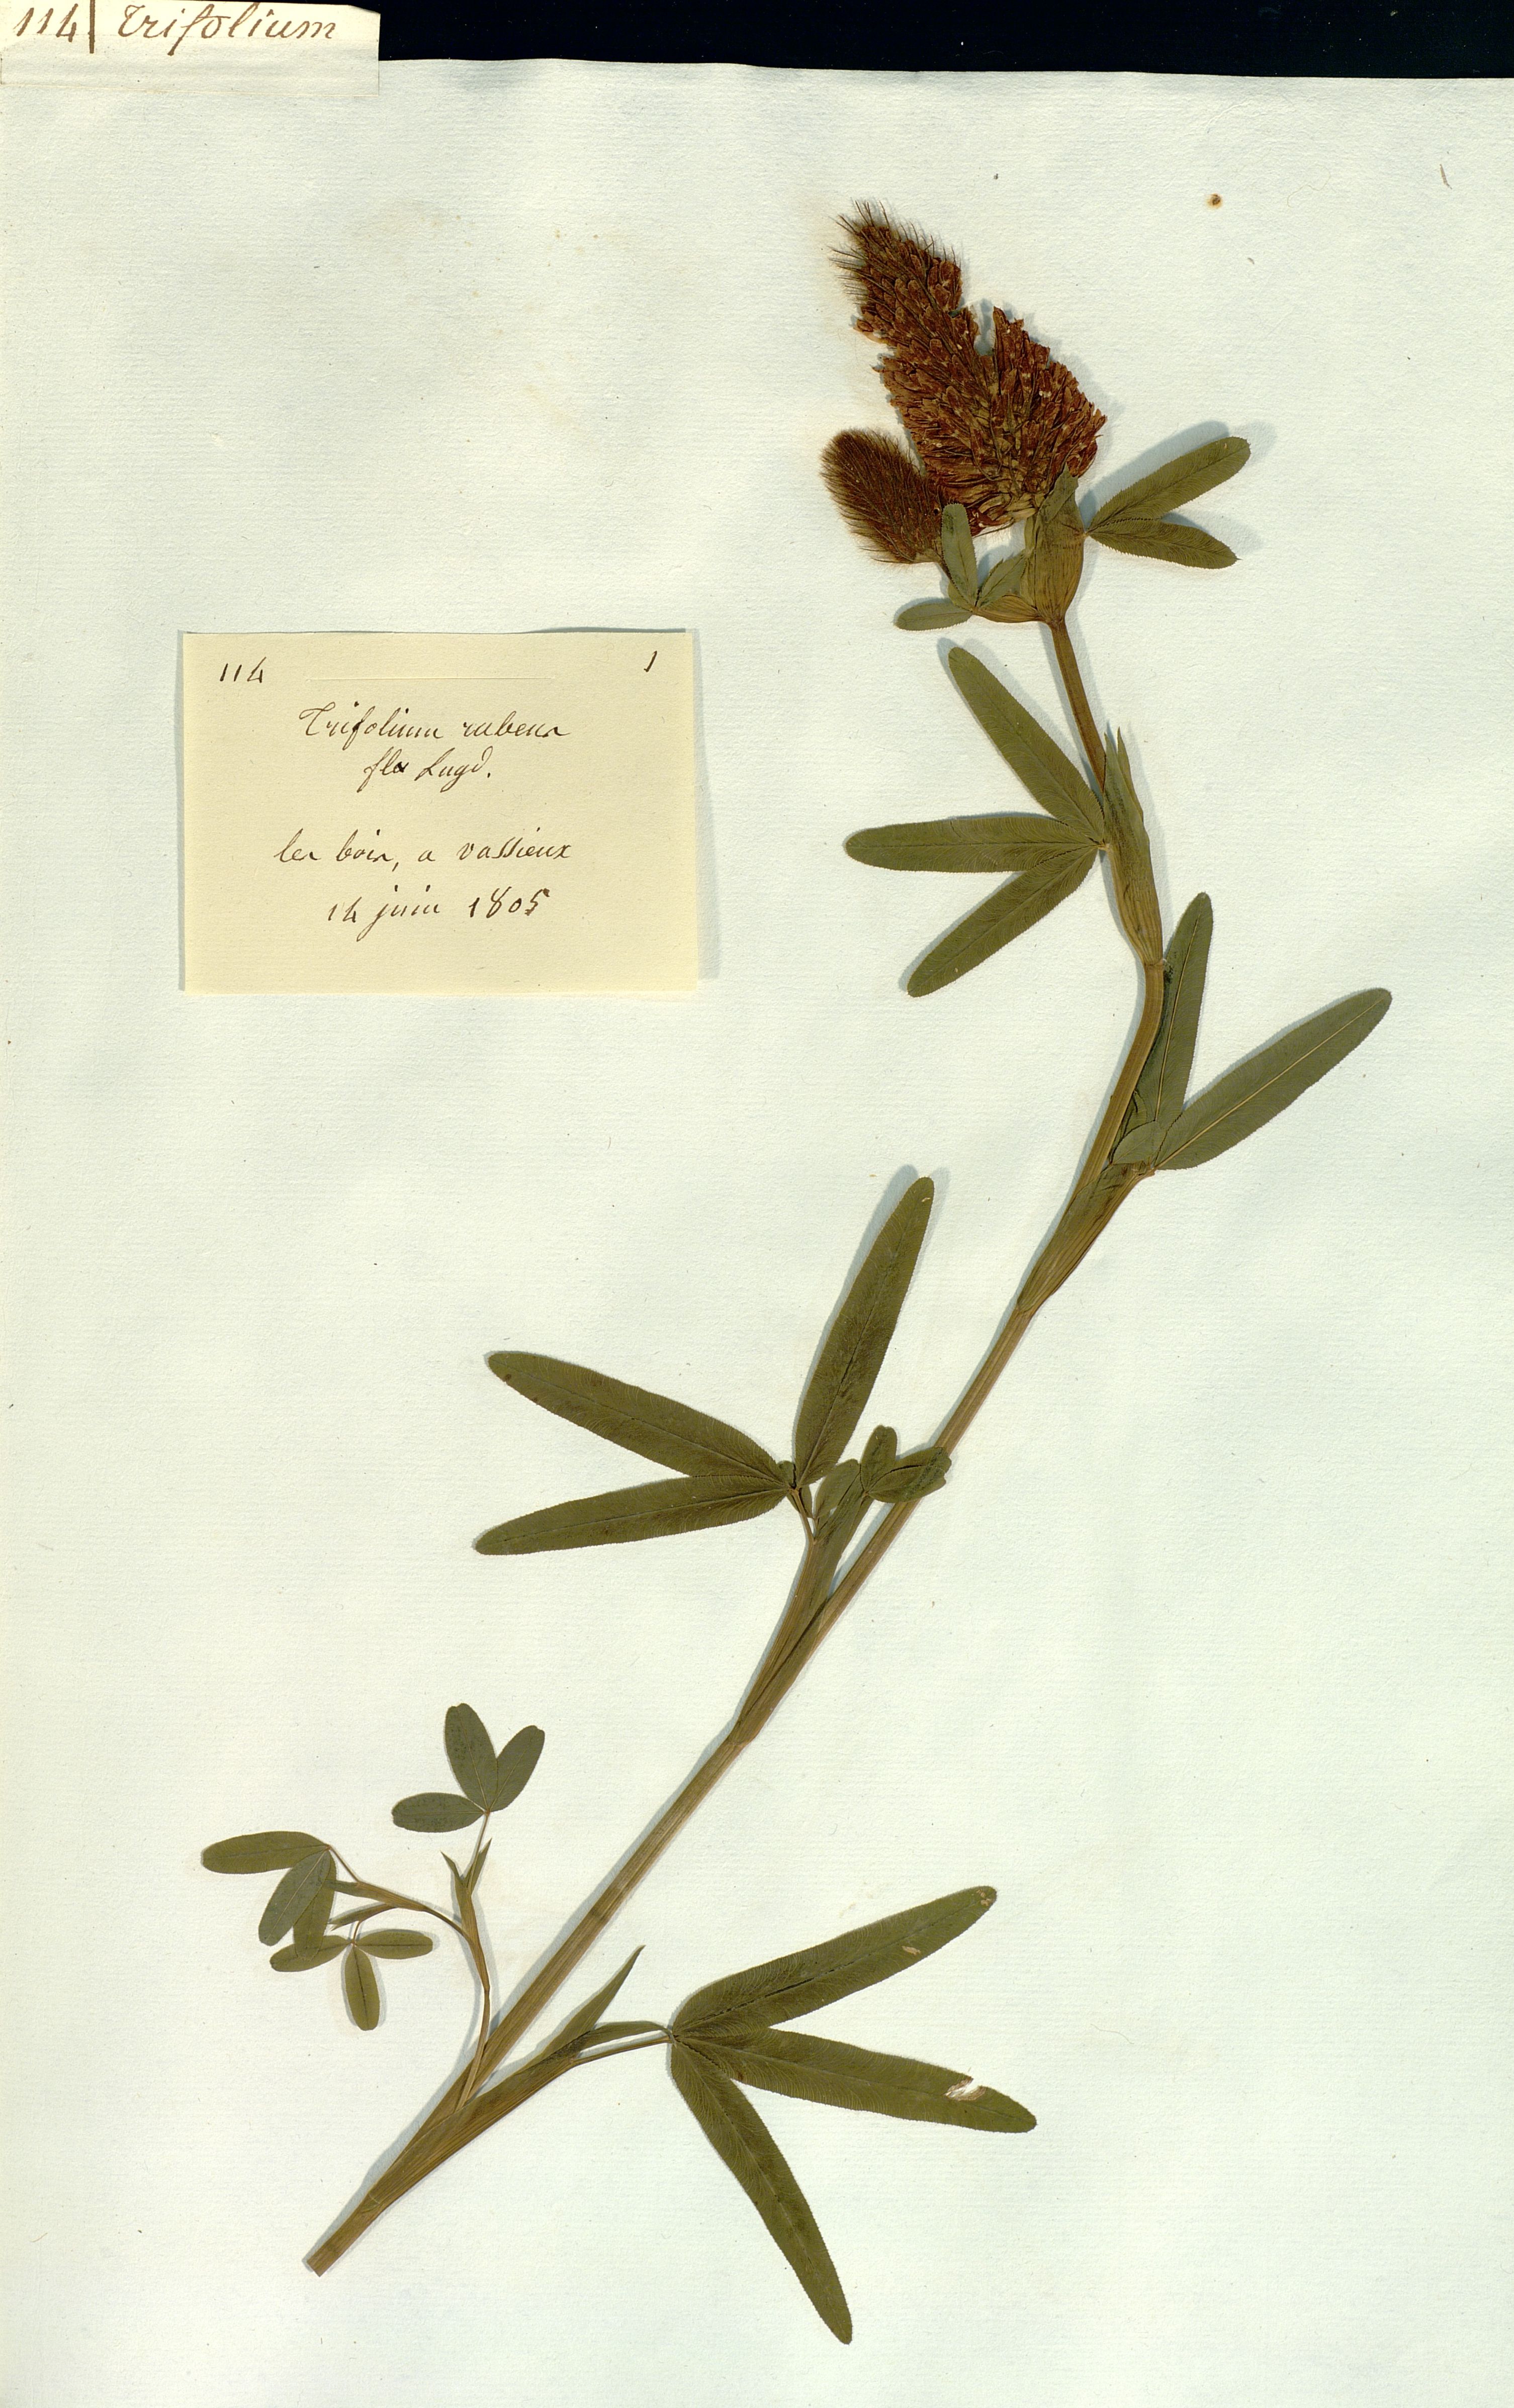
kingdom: Plantae
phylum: Tracheophyta
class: Magnoliopsida
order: Fabales
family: Fabaceae
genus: Trifolium
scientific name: Trifolium rubens
